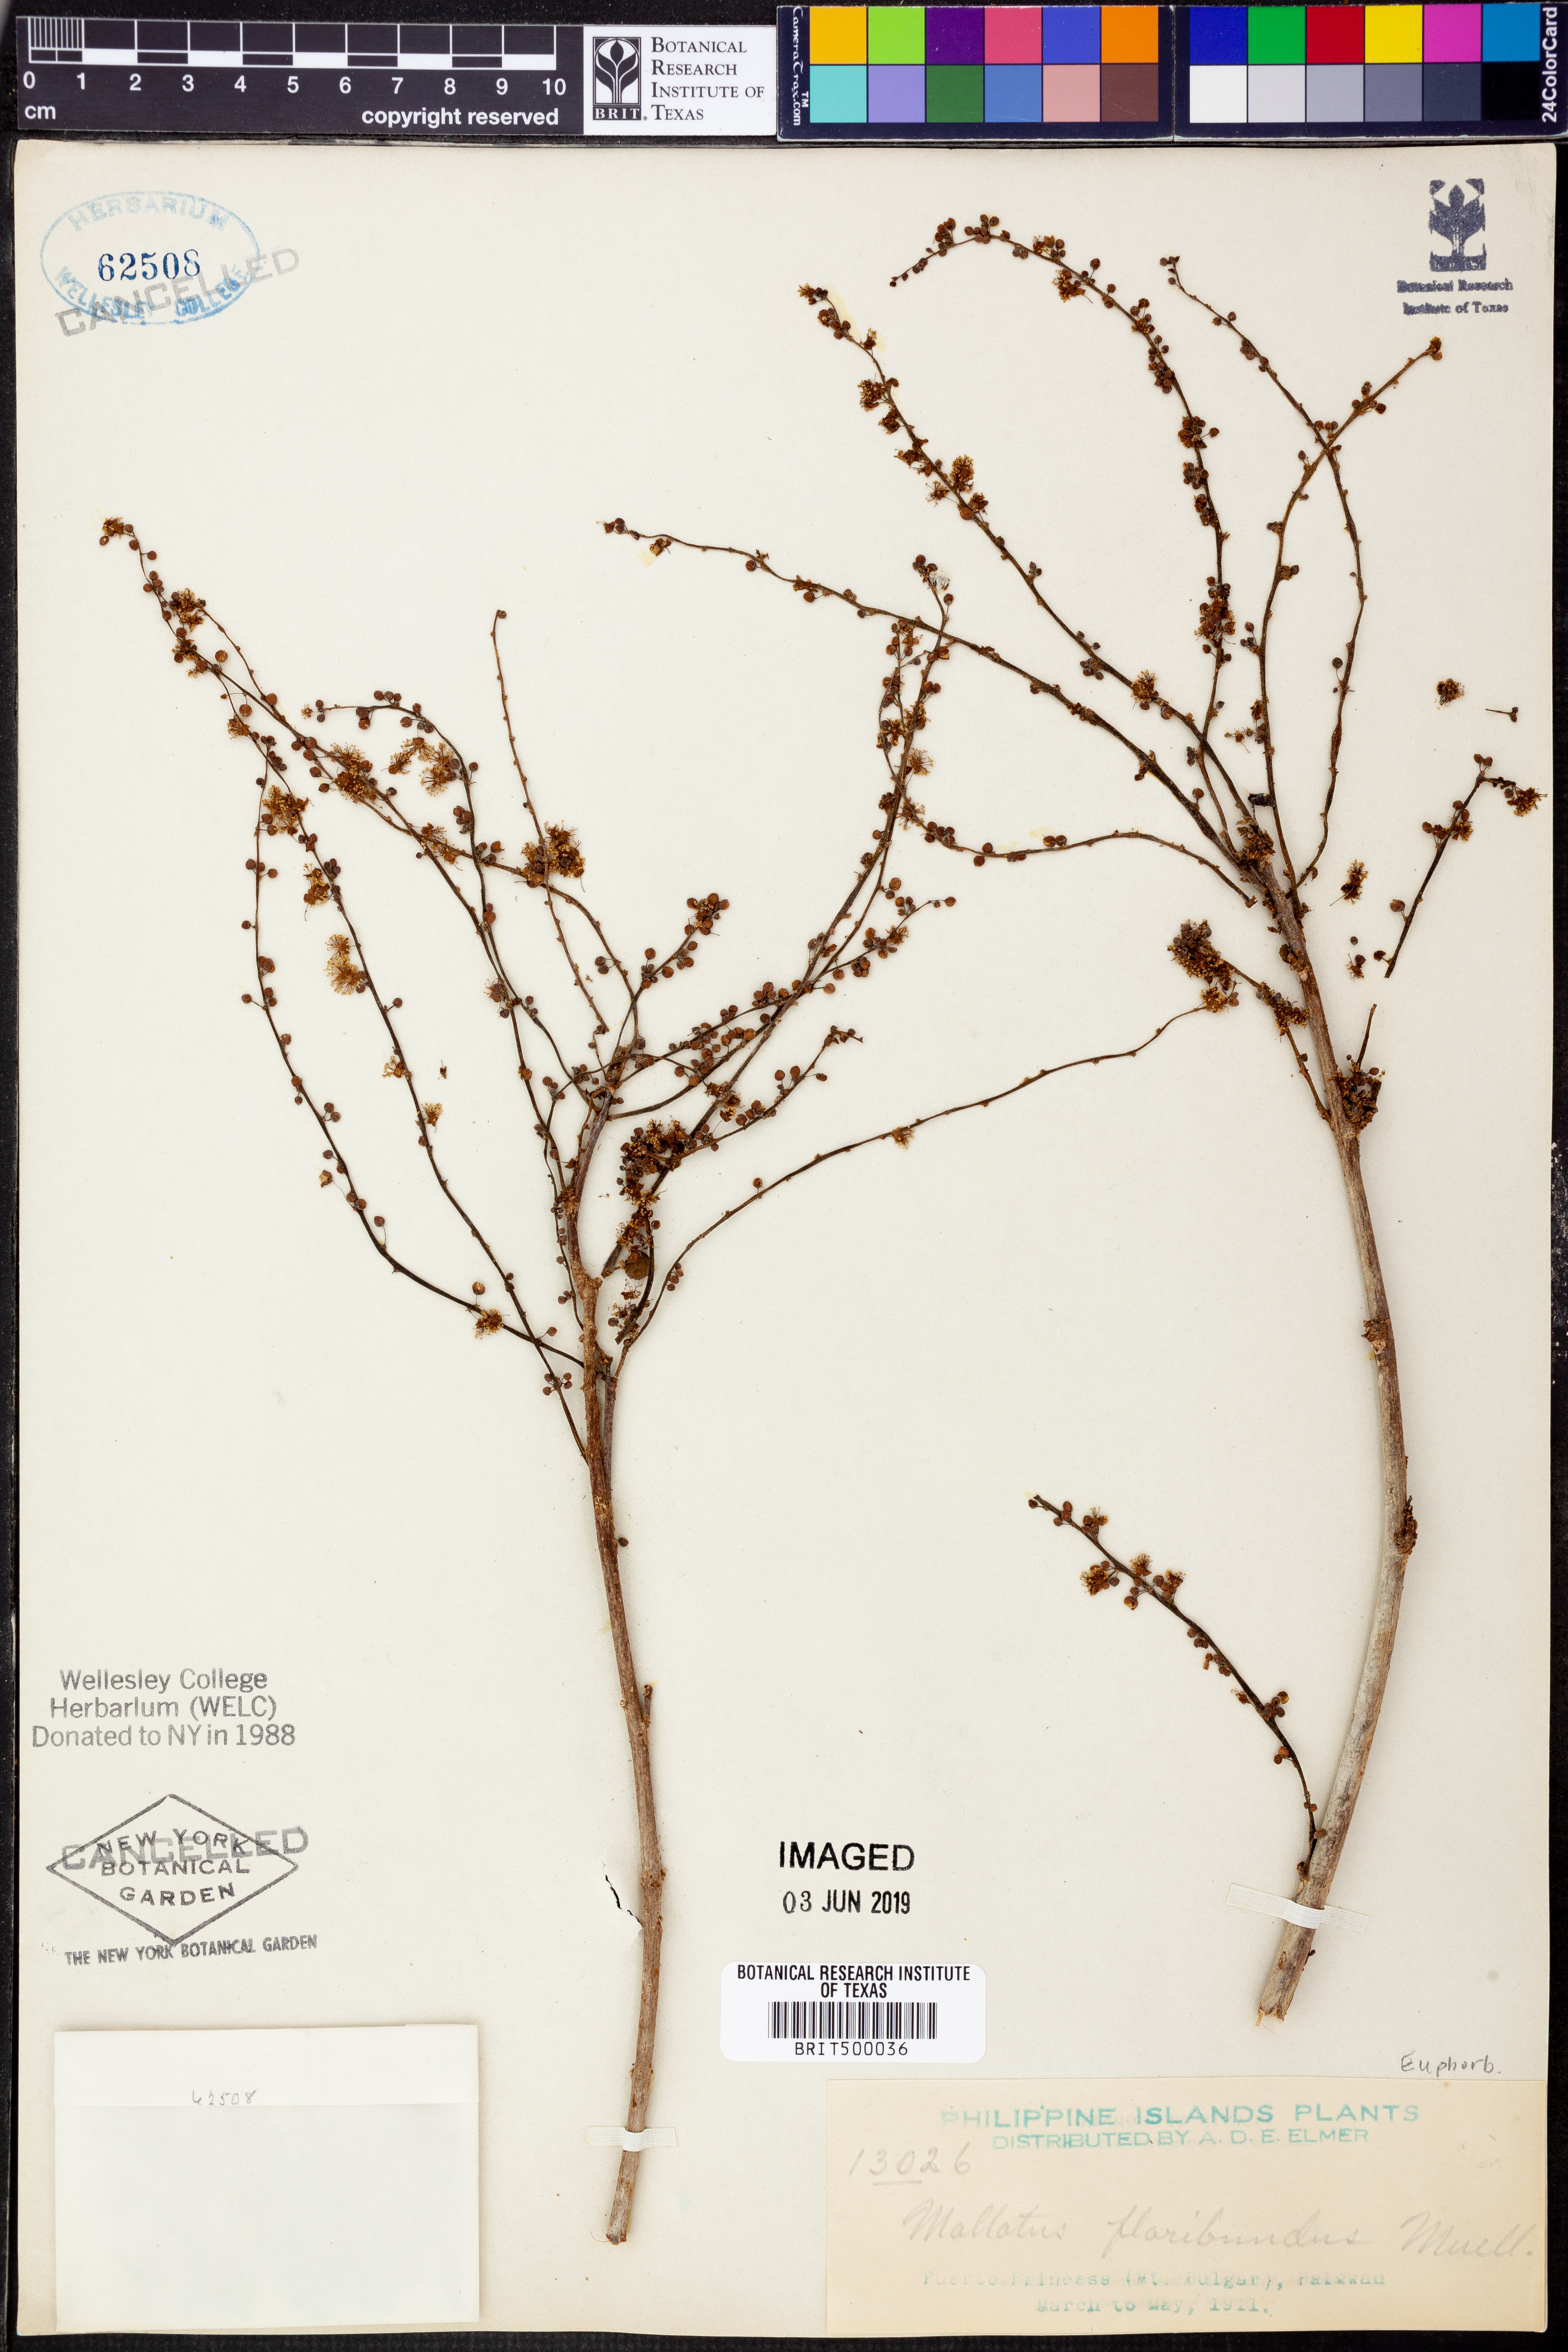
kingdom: Plantae
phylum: Tracheophyta
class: Magnoliopsida
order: Malpighiales
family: Euphorbiaceae
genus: Mallotus
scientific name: Mallotus floribundus
